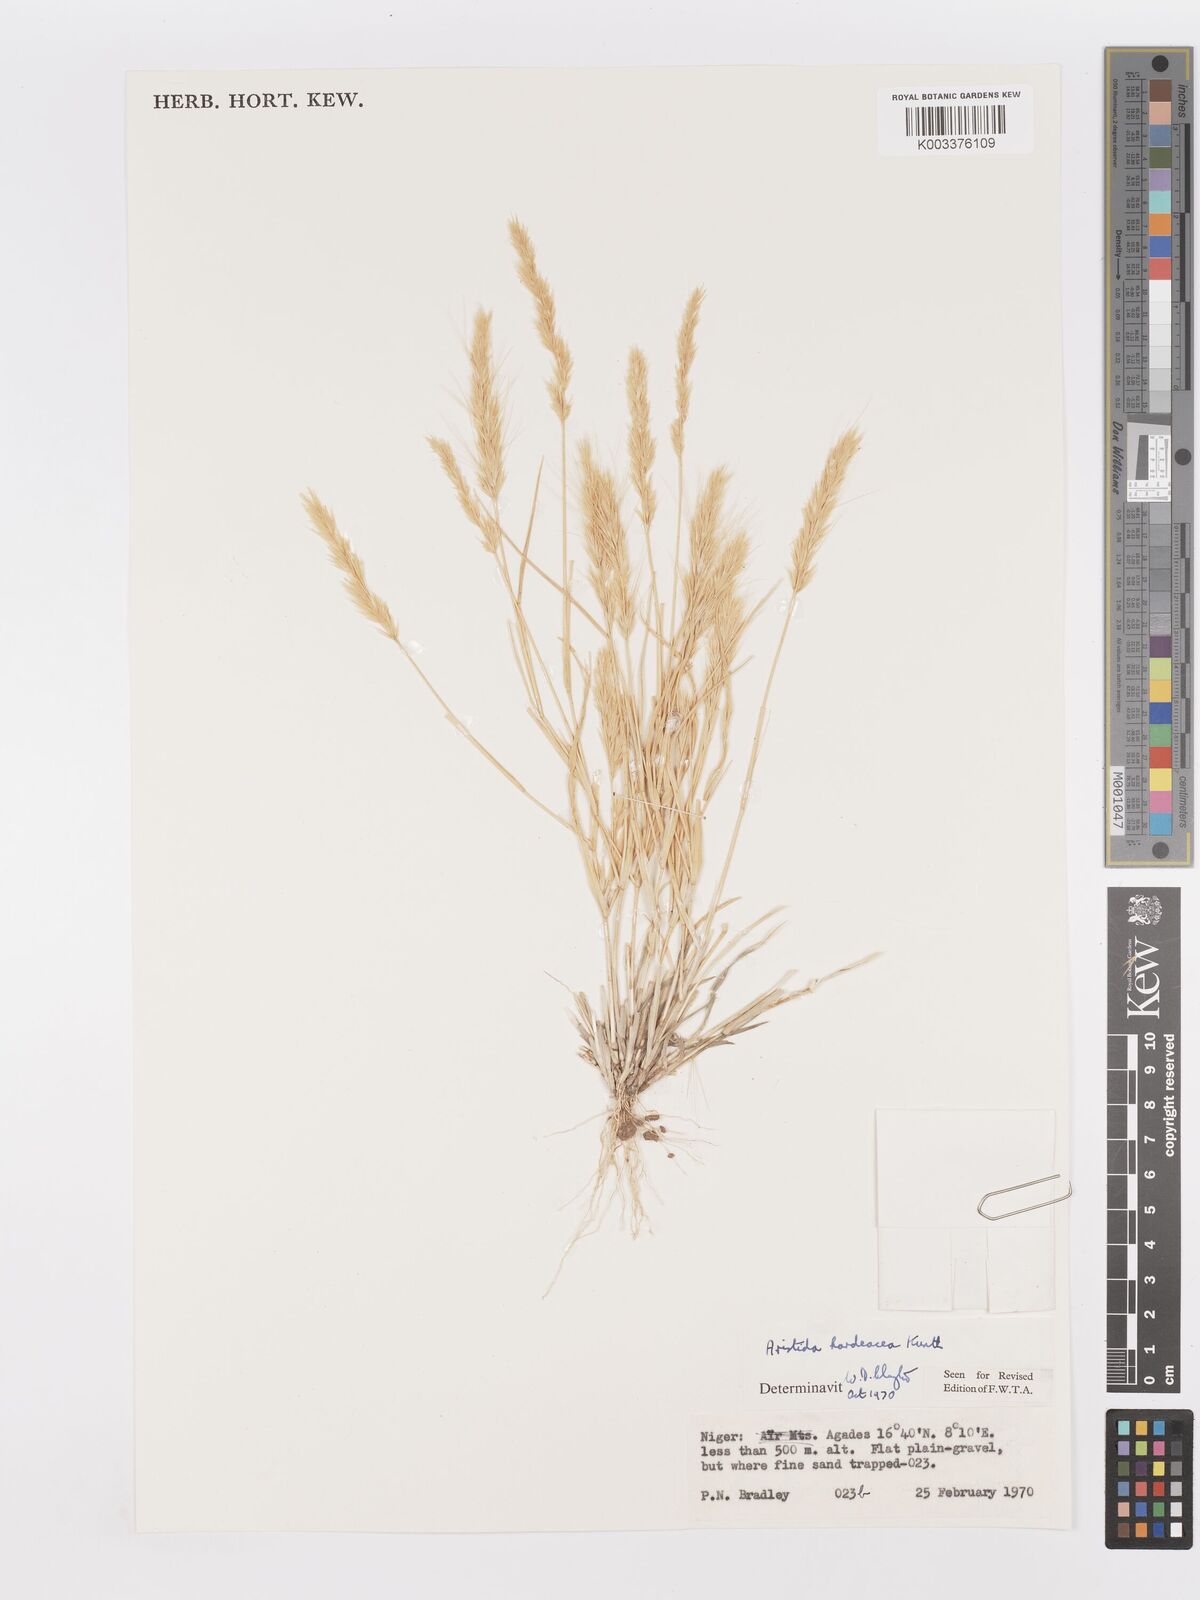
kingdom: Plantae
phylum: Tracheophyta
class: Liliopsida
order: Poales
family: Poaceae
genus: Aristida
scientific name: Aristida hordeacea
